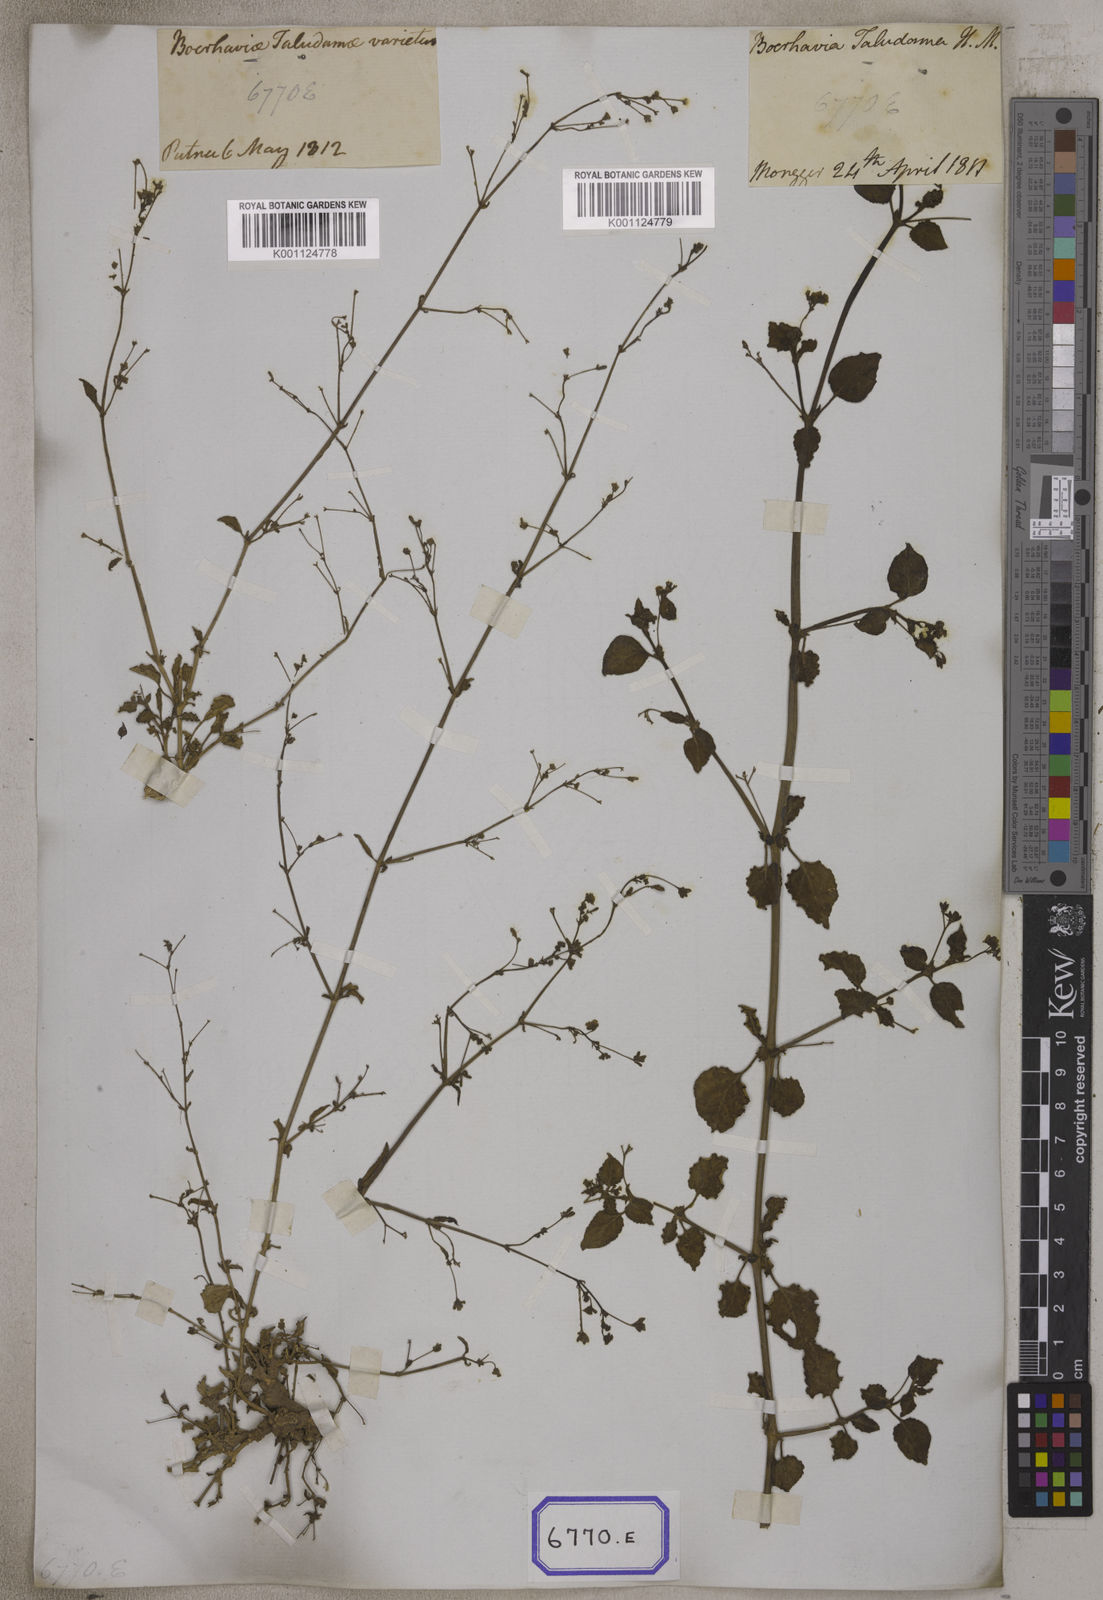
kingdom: Plantae
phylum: Tracheophyta
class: Magnoliopsida
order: Caryophyllales
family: Nyctaginaceae
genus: Boerhavia
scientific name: Boerhavia diffusa
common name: Red spiderling
